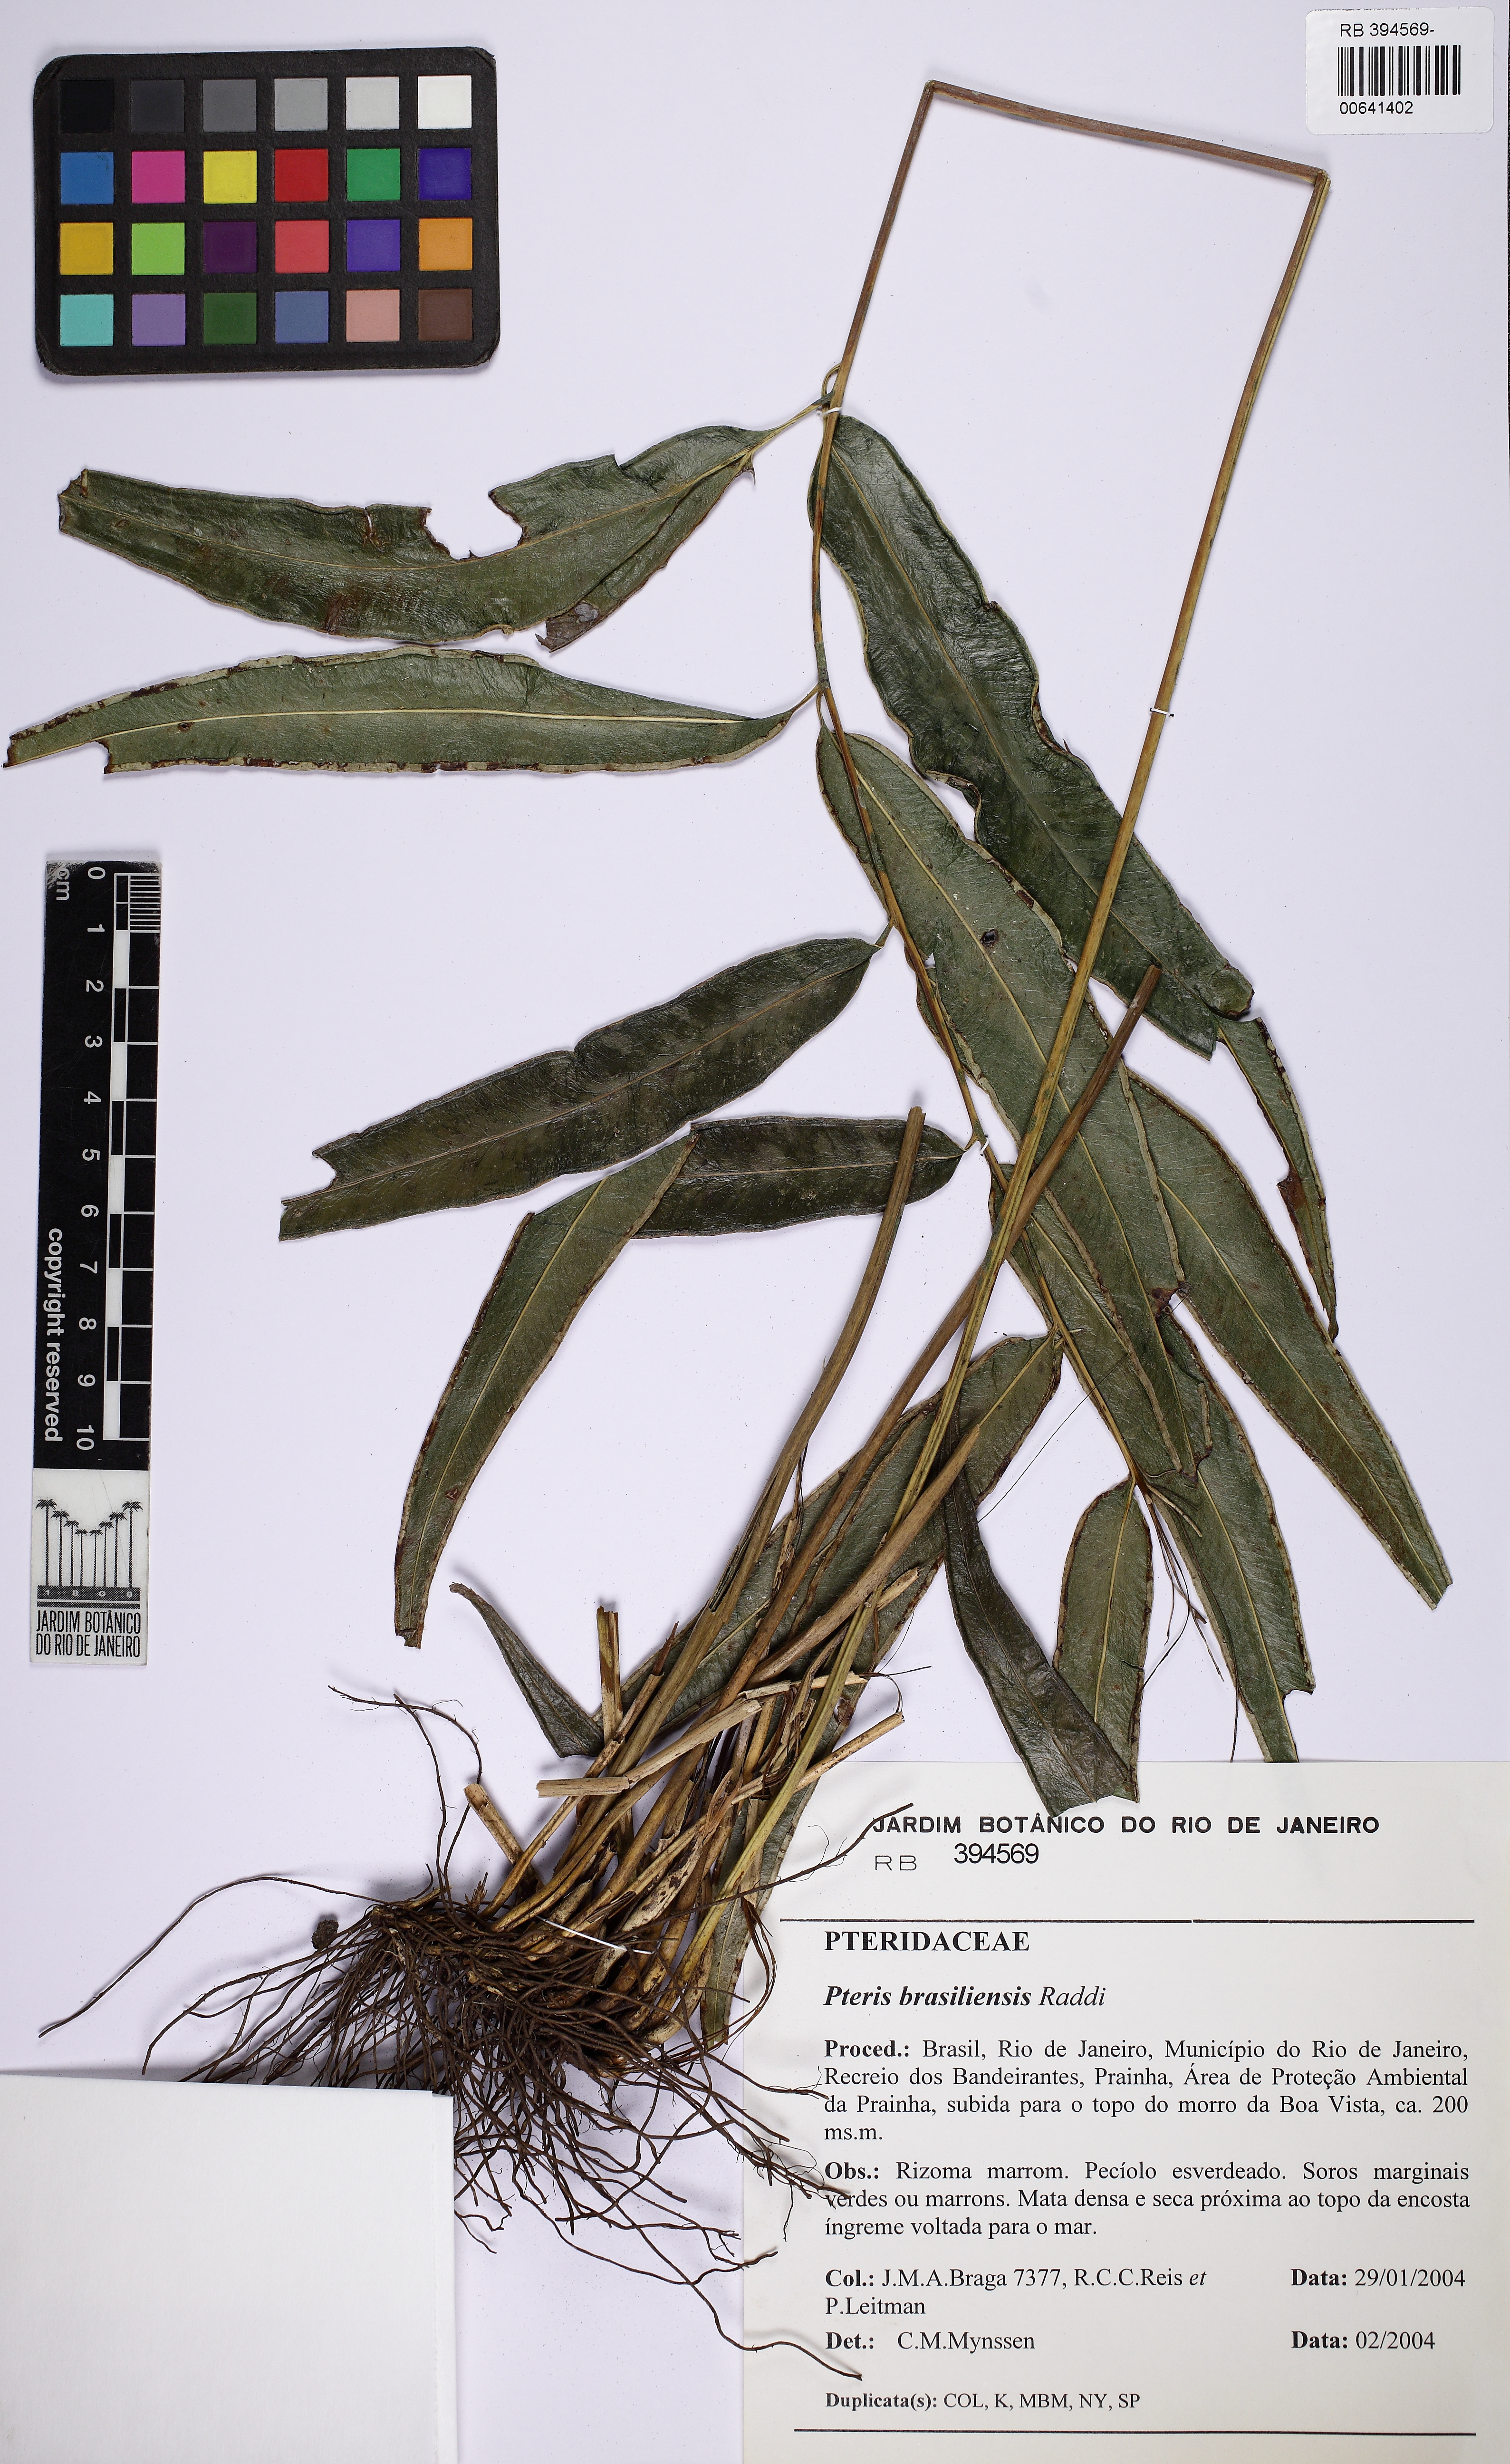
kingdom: Plantae
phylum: Tracheophyta
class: Polypodiopsida
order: Polypodiales
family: Pteridaceae
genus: Pteris
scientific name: Pteris brasiliensis
